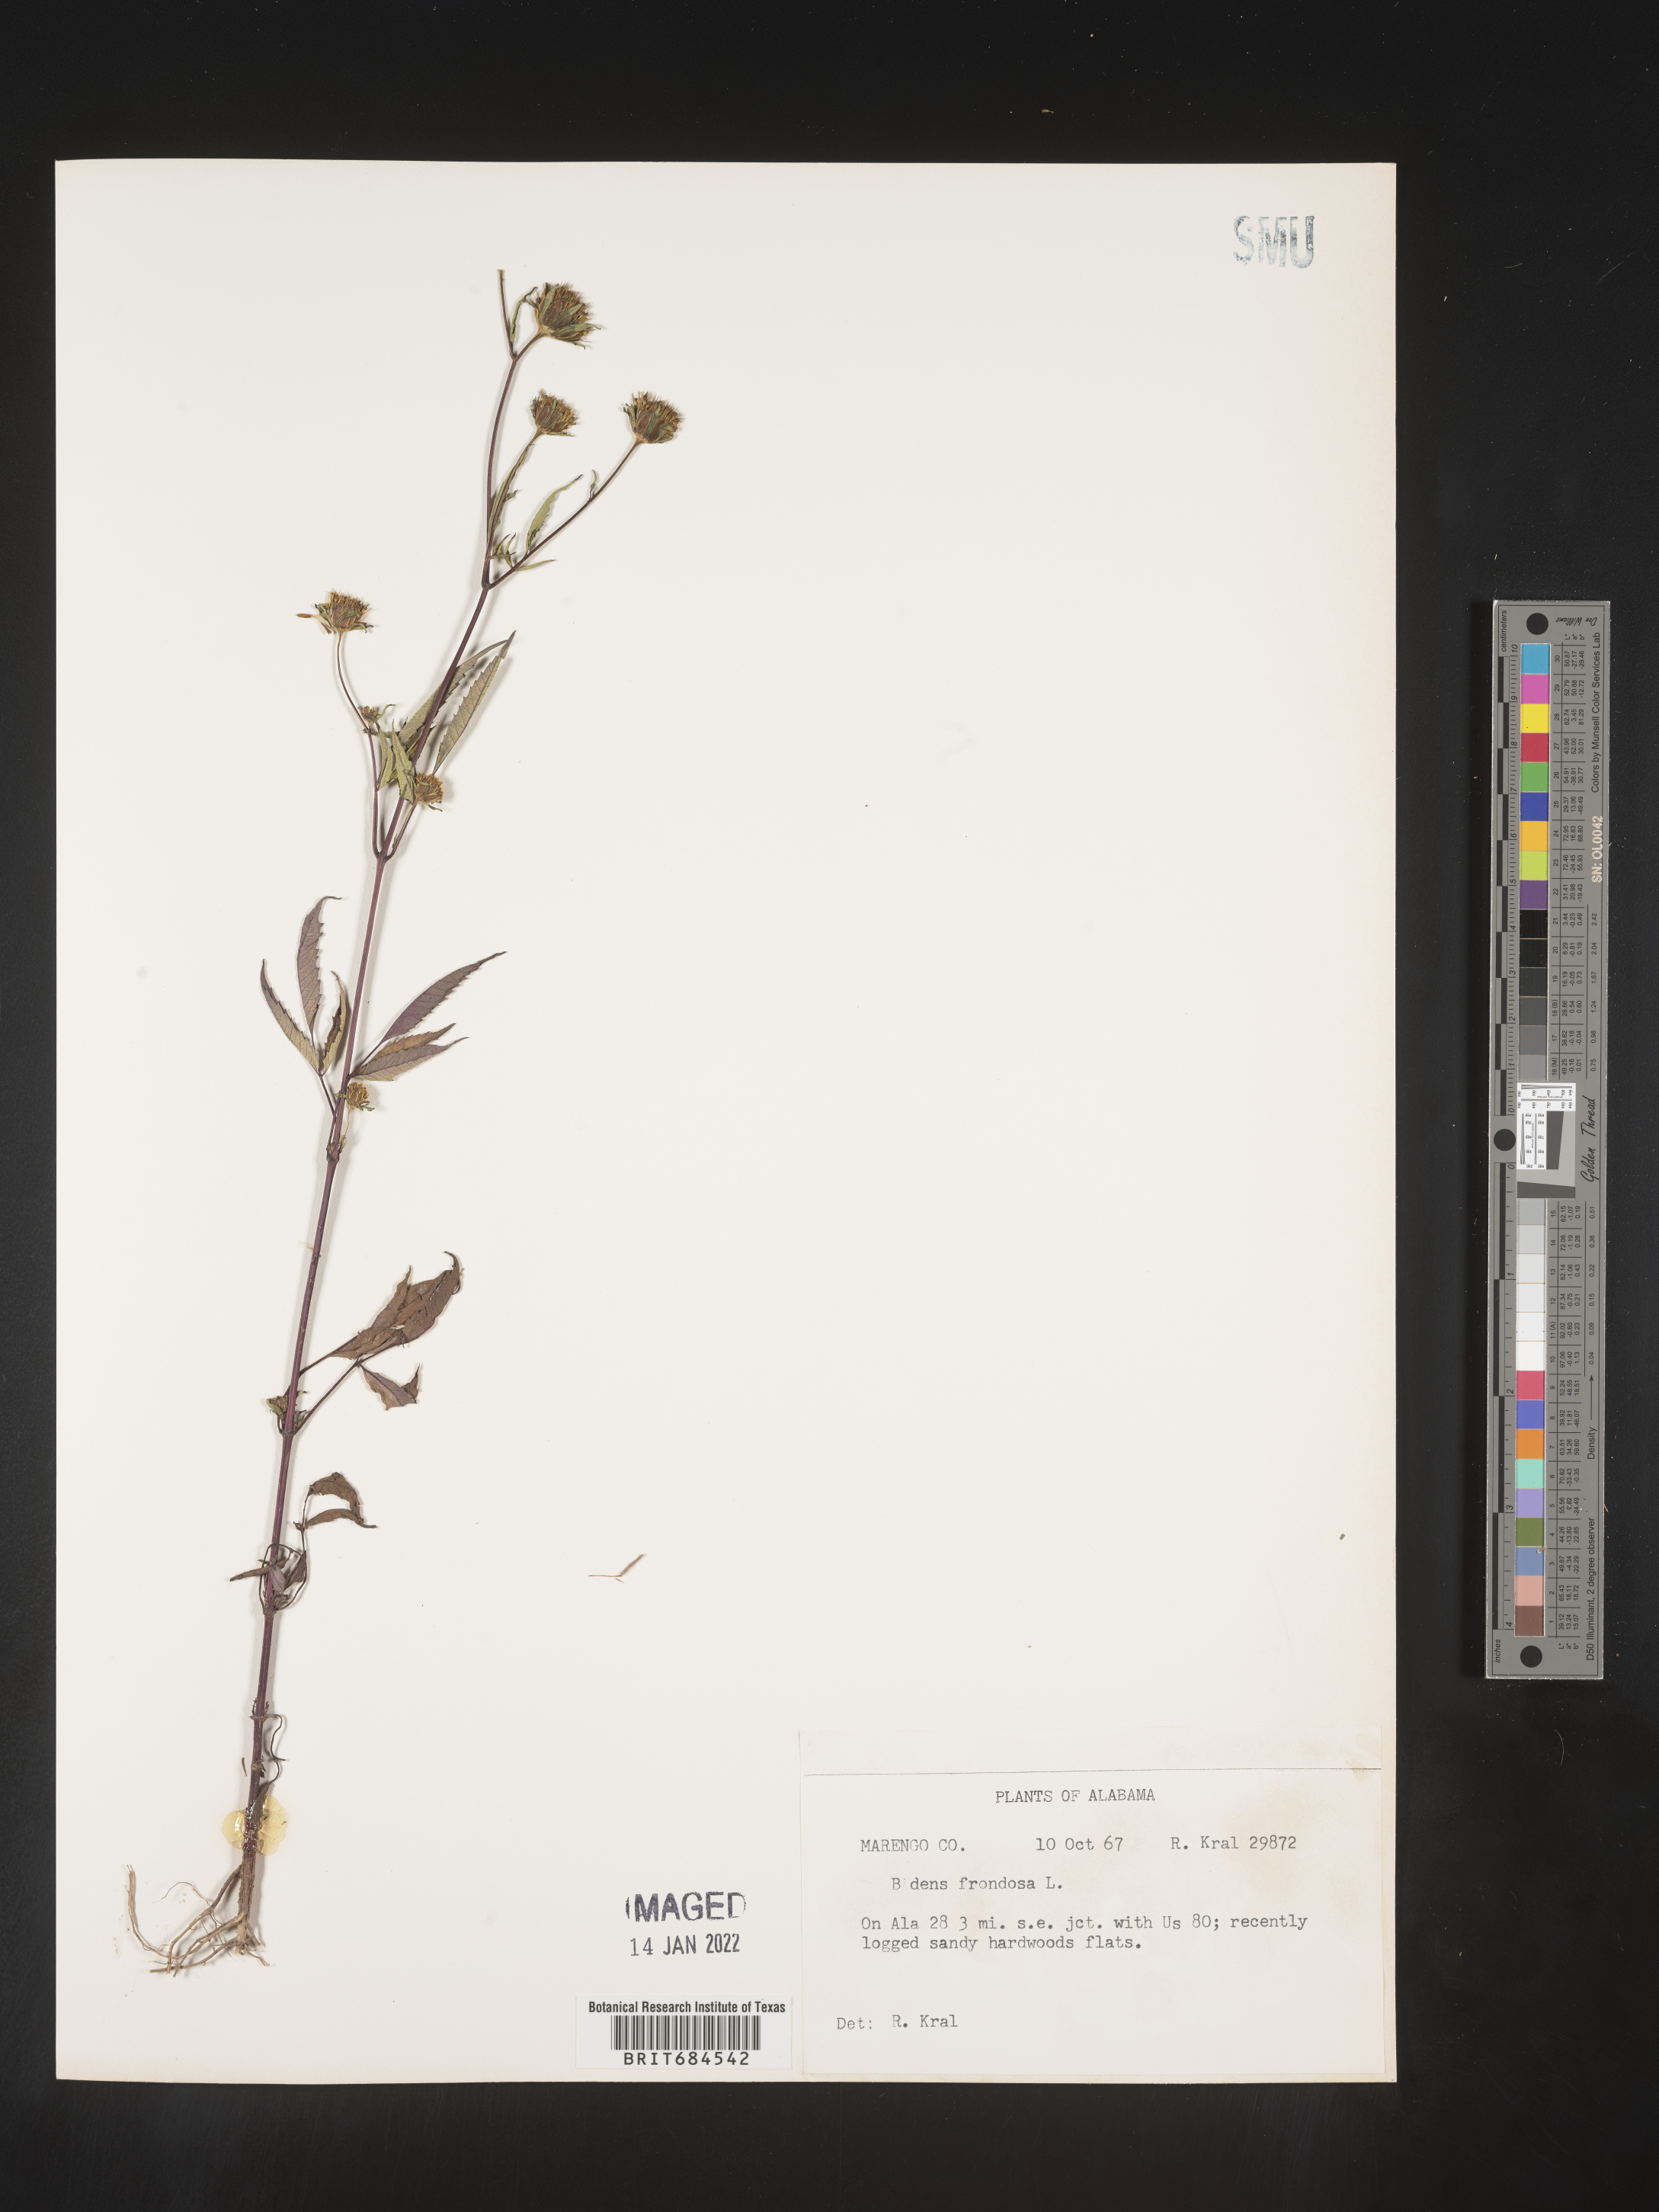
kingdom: Plantae
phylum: Tracheophyta
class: Magnoliopsida
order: Asterales
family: Asteraceae
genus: Bidens
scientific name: Bidens frondosa
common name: Beggarticks
